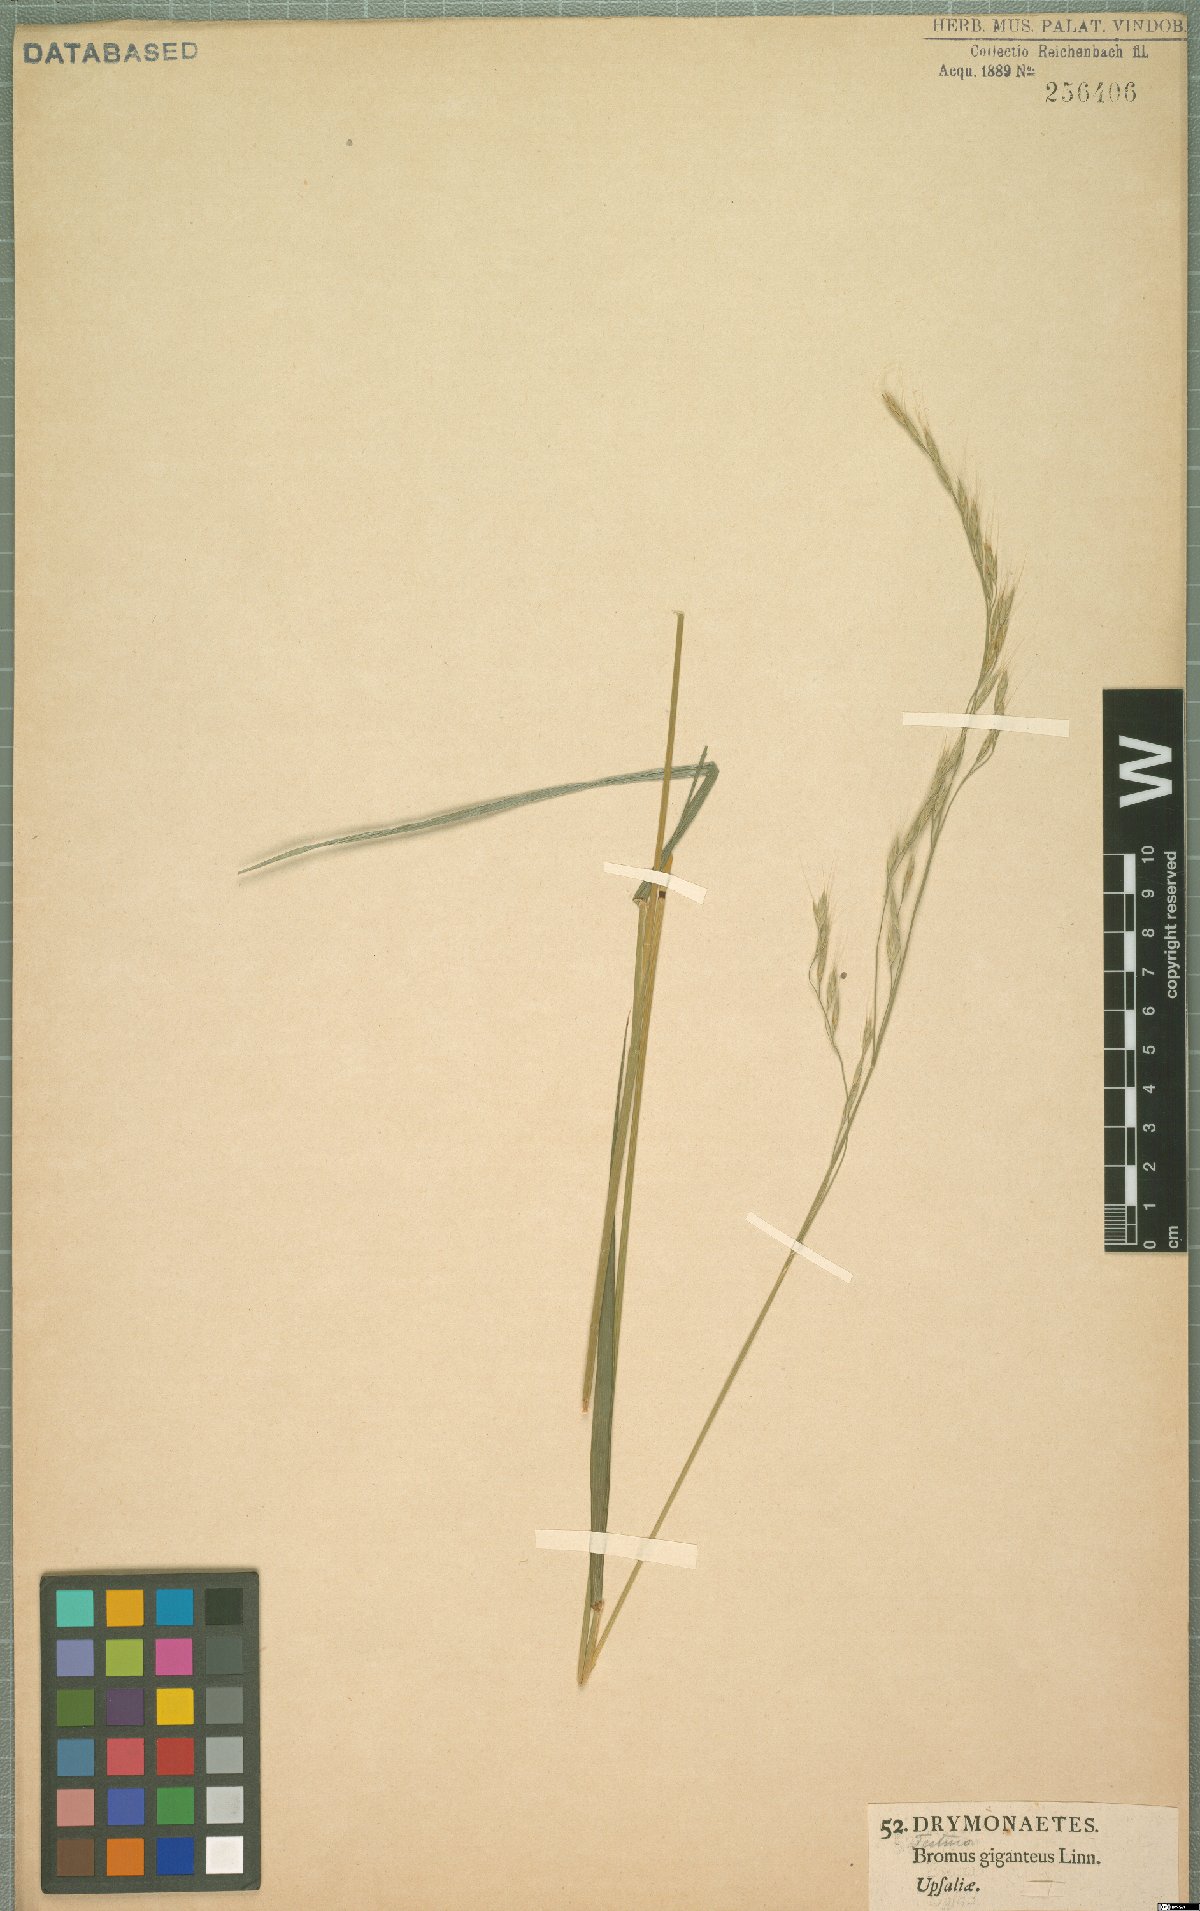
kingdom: Plantae
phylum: Tracheophyta
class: Liliopsida
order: Poales
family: Poaceae
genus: Lolium
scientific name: Lolium giganteum
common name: Giant fescue
